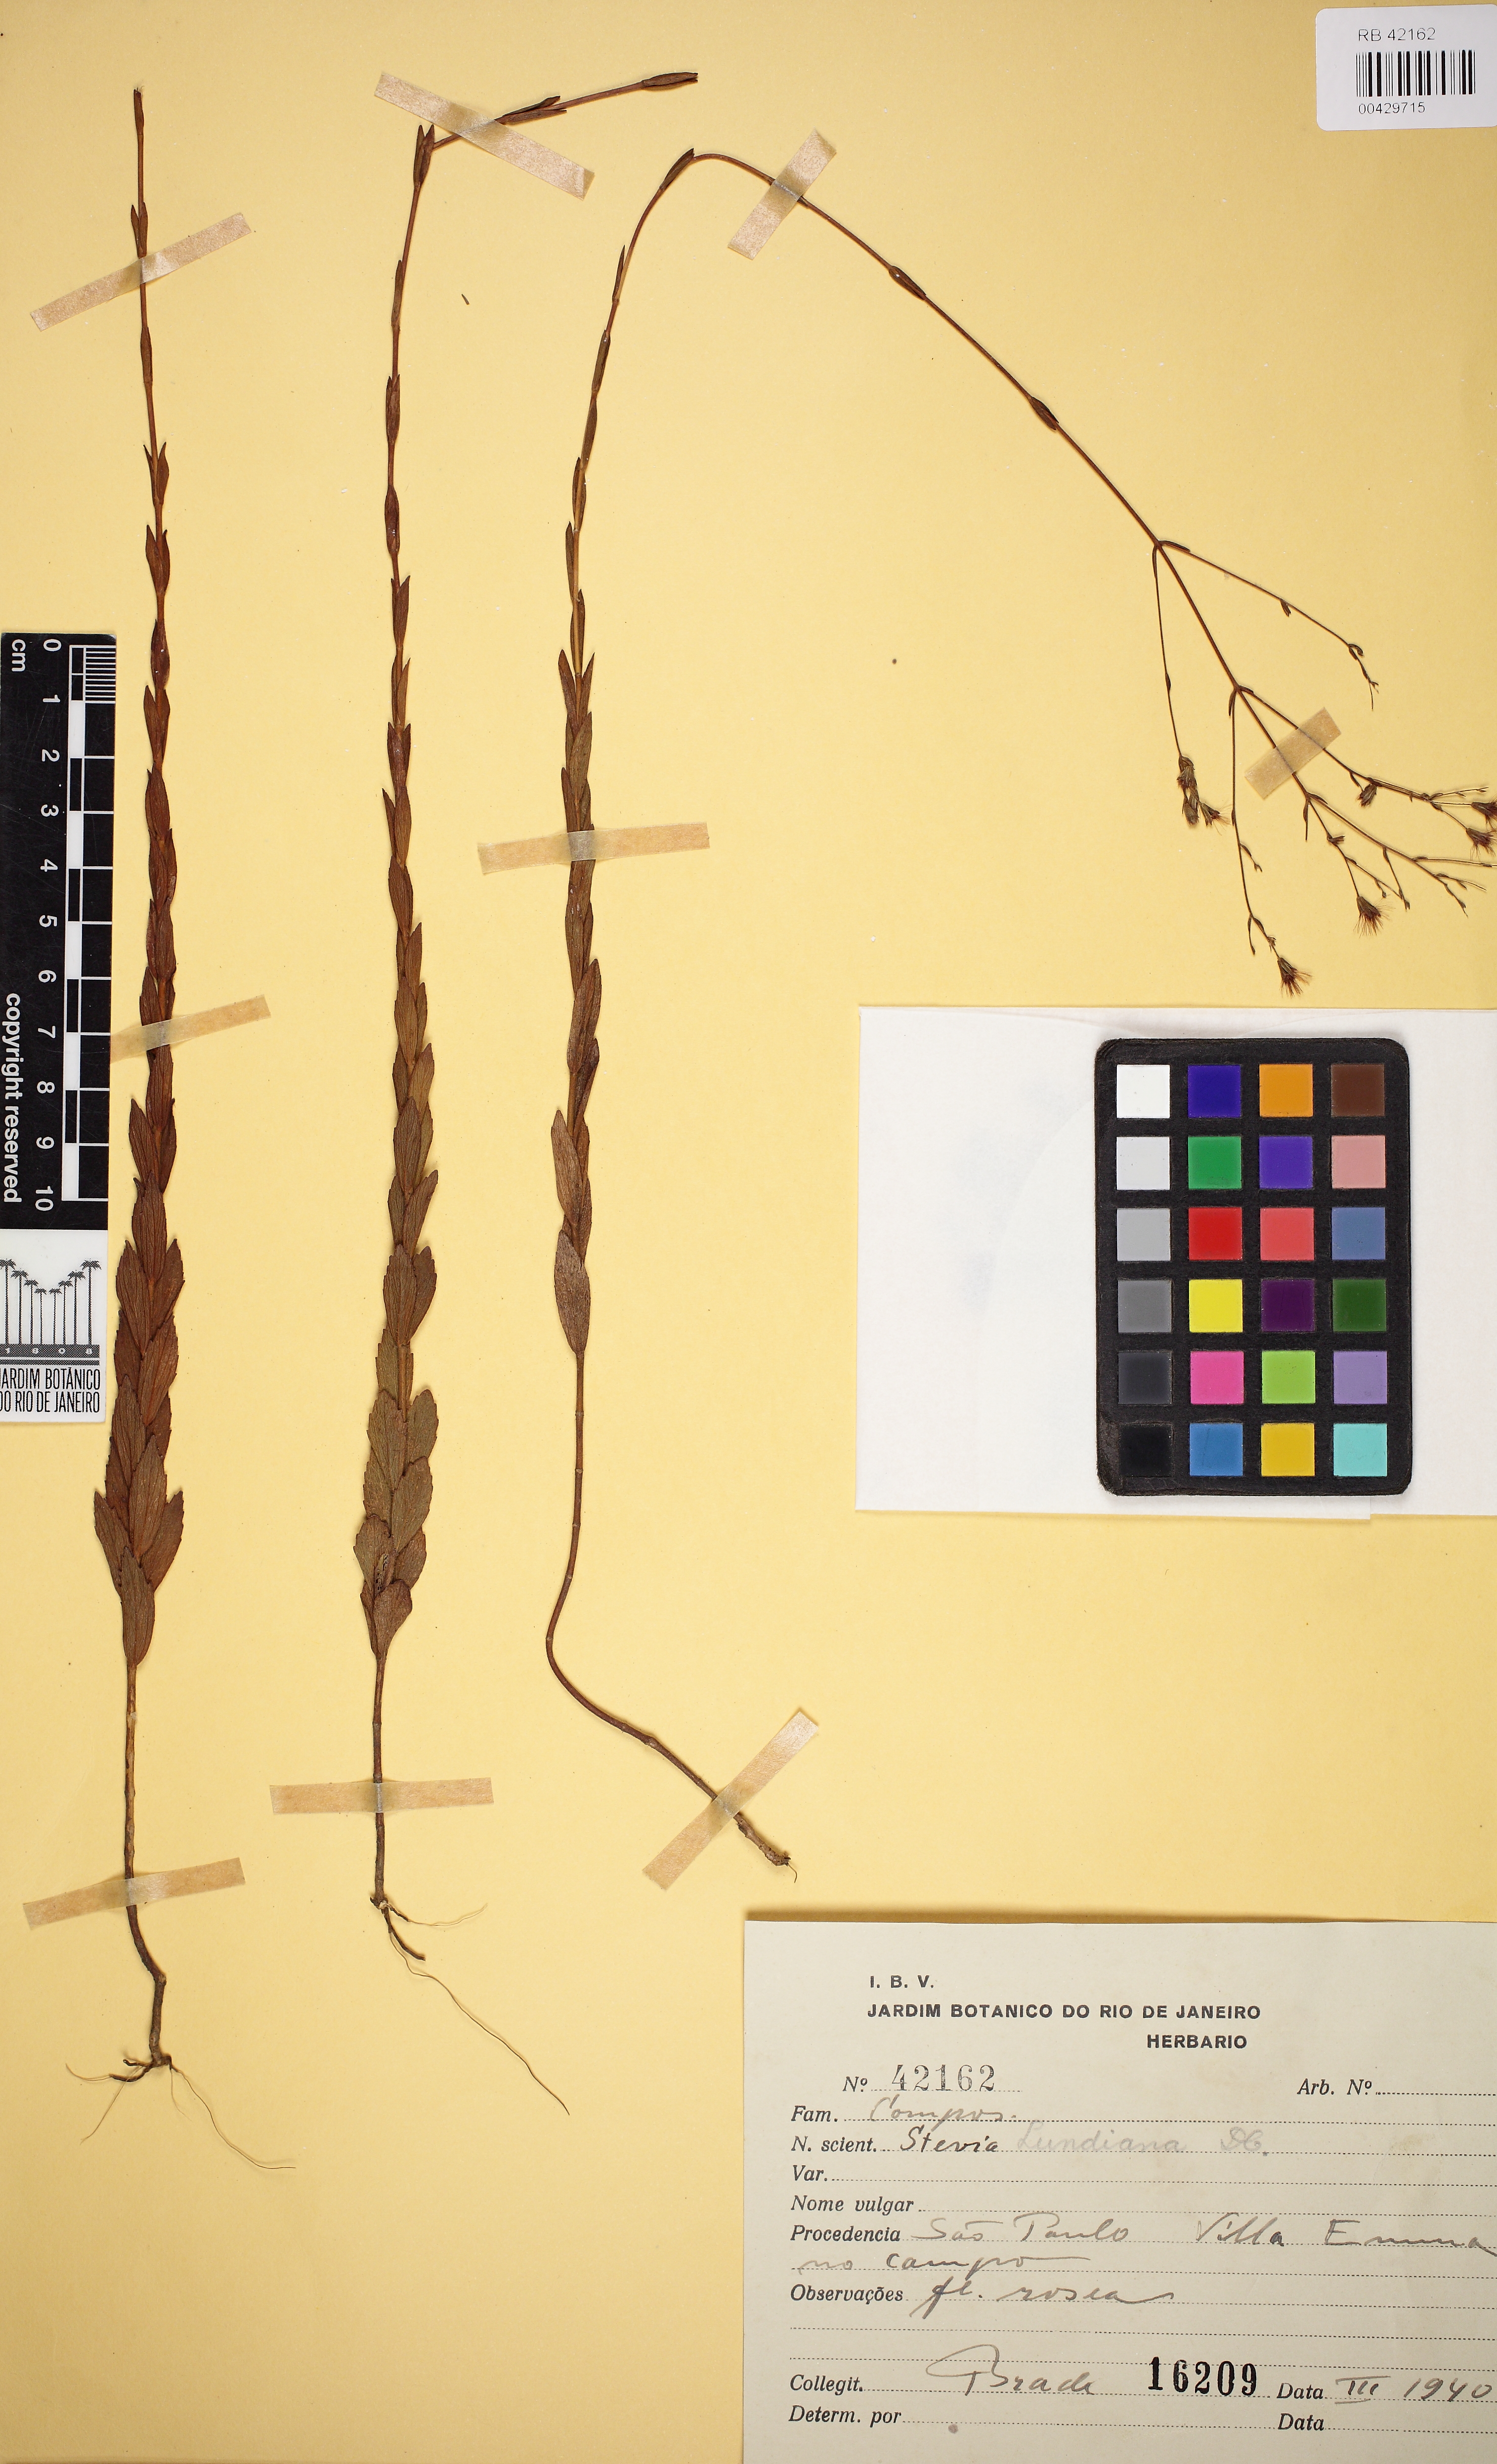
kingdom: Plantae
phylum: Tracheophyta
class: Magnoliopsida
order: Asterales
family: Asteraceae
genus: Stevia
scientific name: Stevia lundiana
